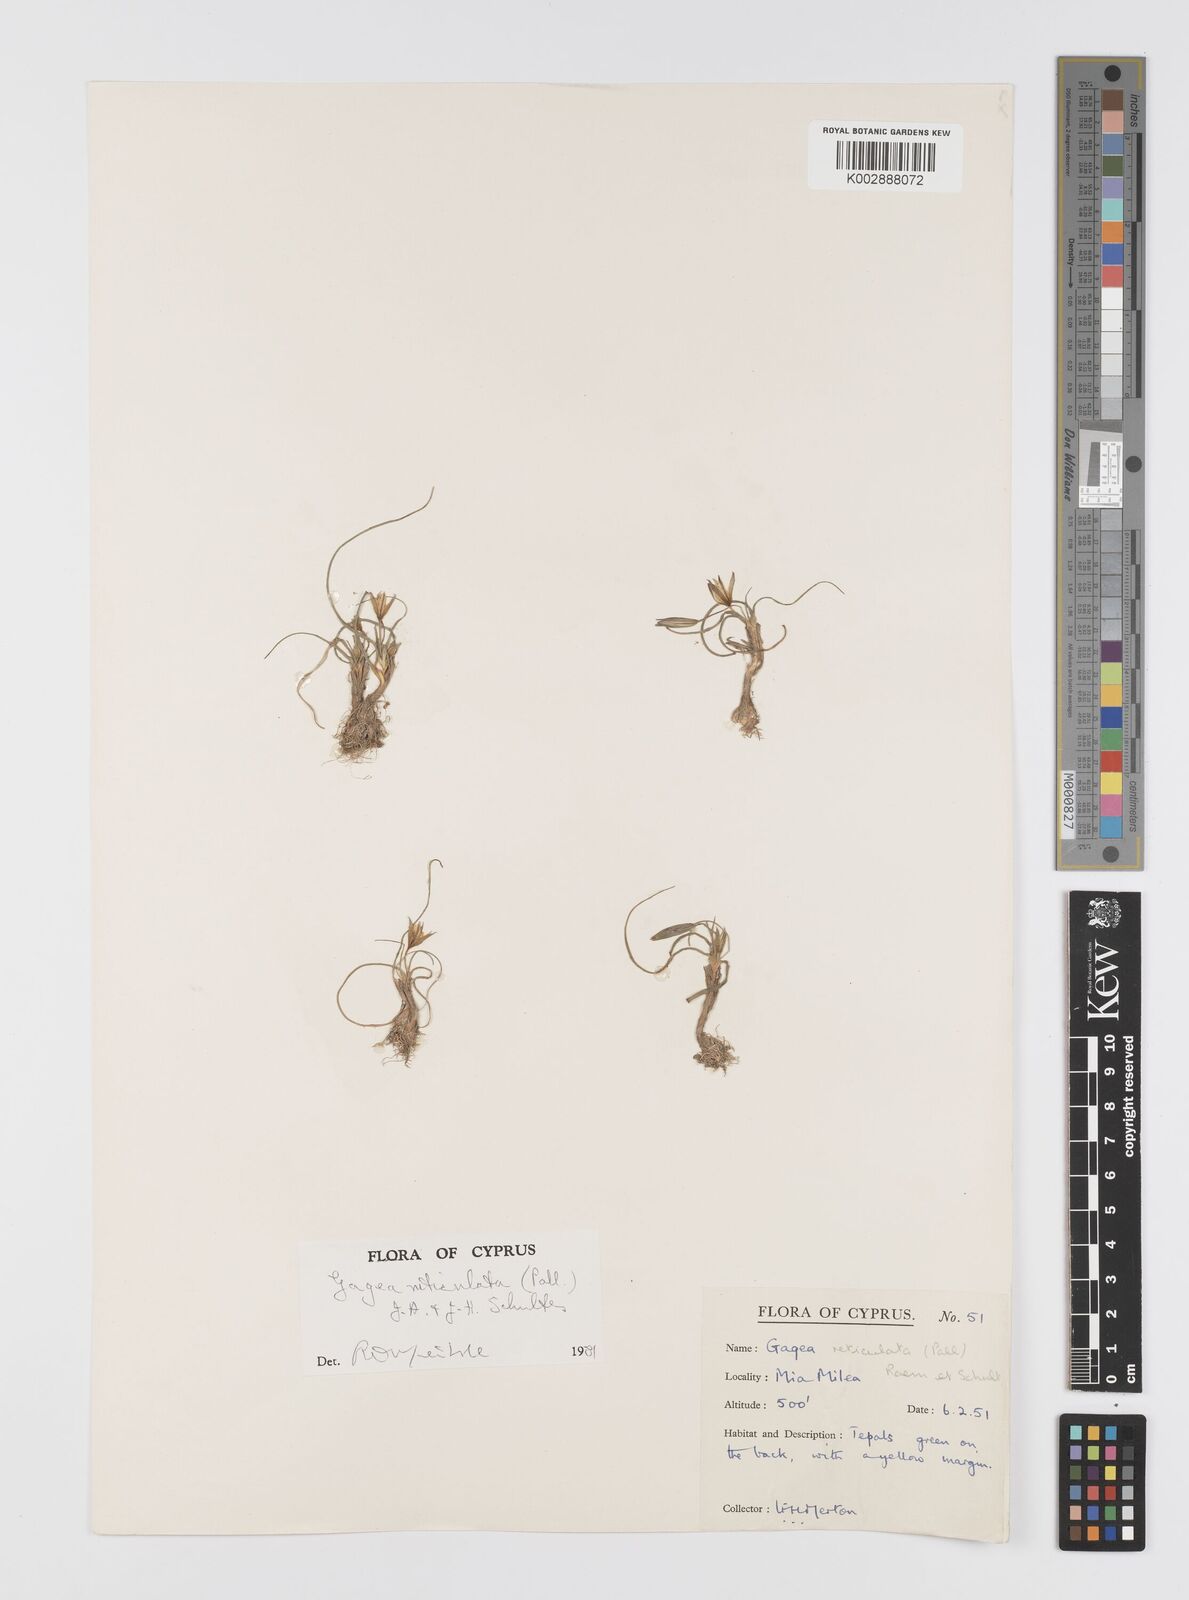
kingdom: Plantae
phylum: Tracheophyta
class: Liliopsida
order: Liliales
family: Liliaceae
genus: Gagea
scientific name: Gagea reticulata
